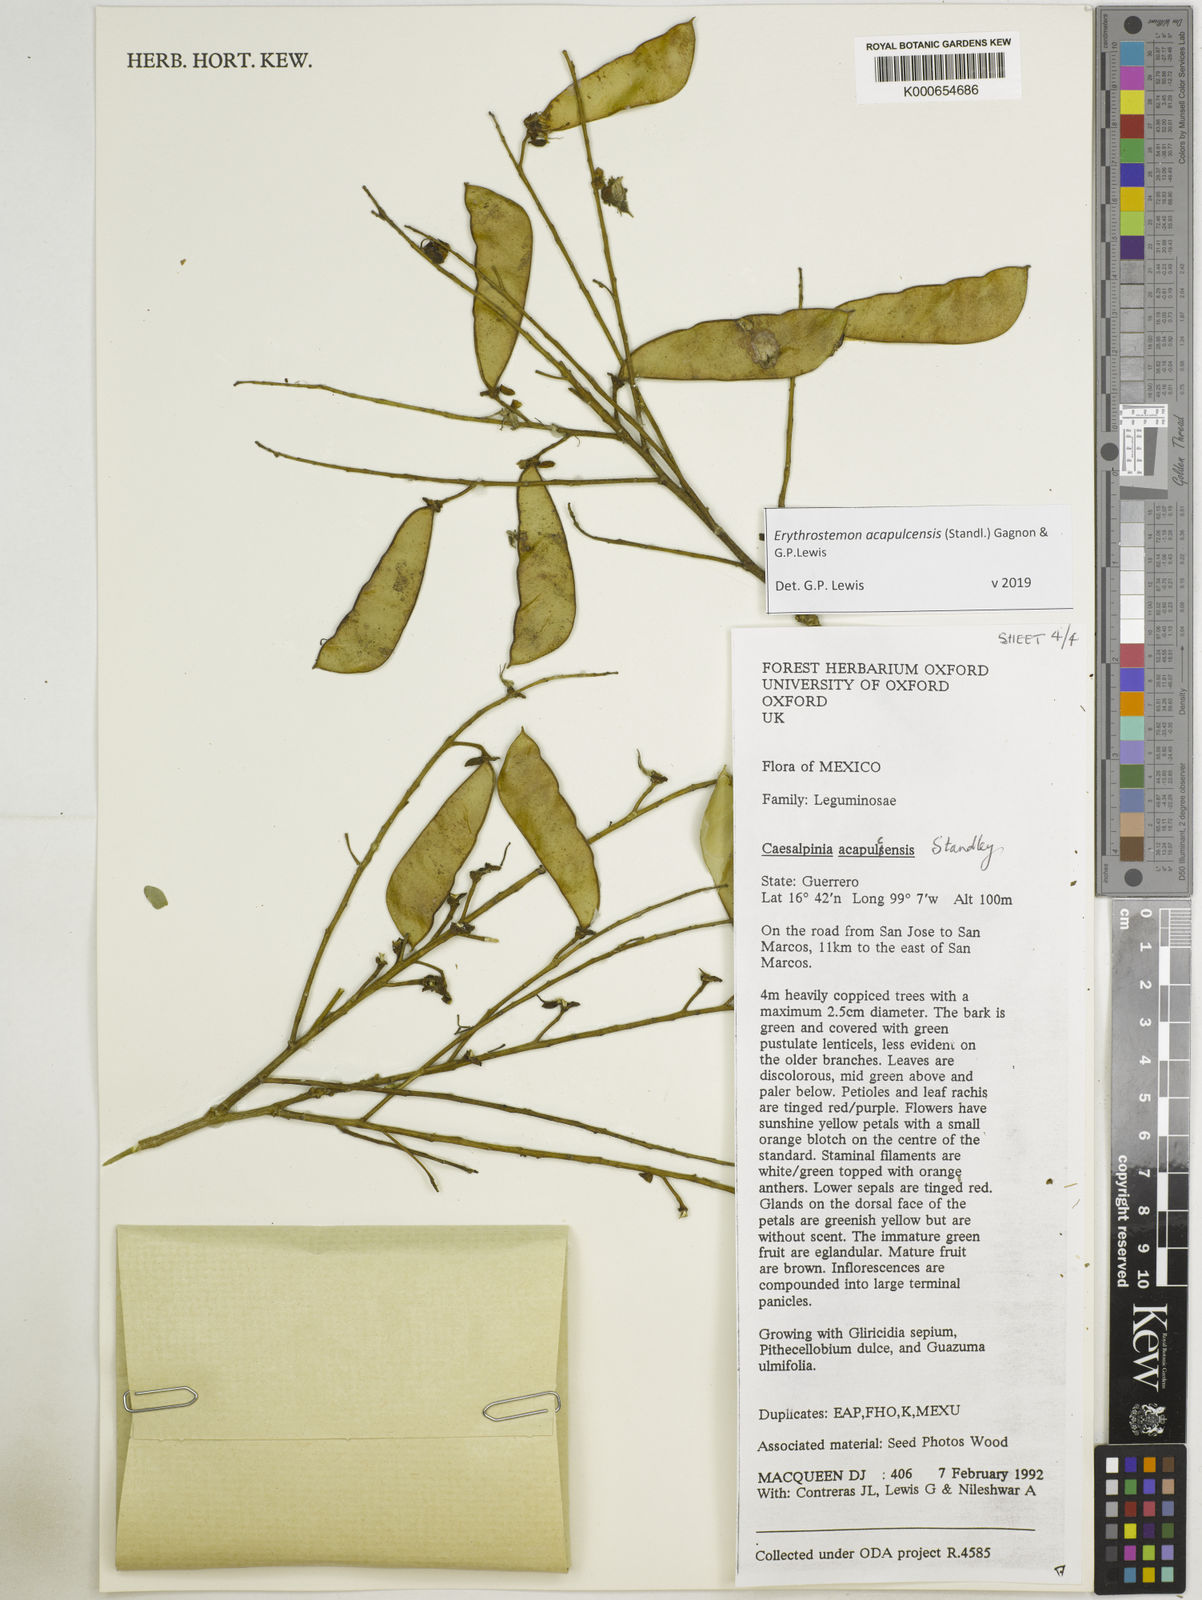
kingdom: Plantae
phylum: Tracheophyta
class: Magnoliopsida
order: Fabales
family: Fabaceae
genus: Erythrostemon
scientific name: Erythrostemon acapulcensis
